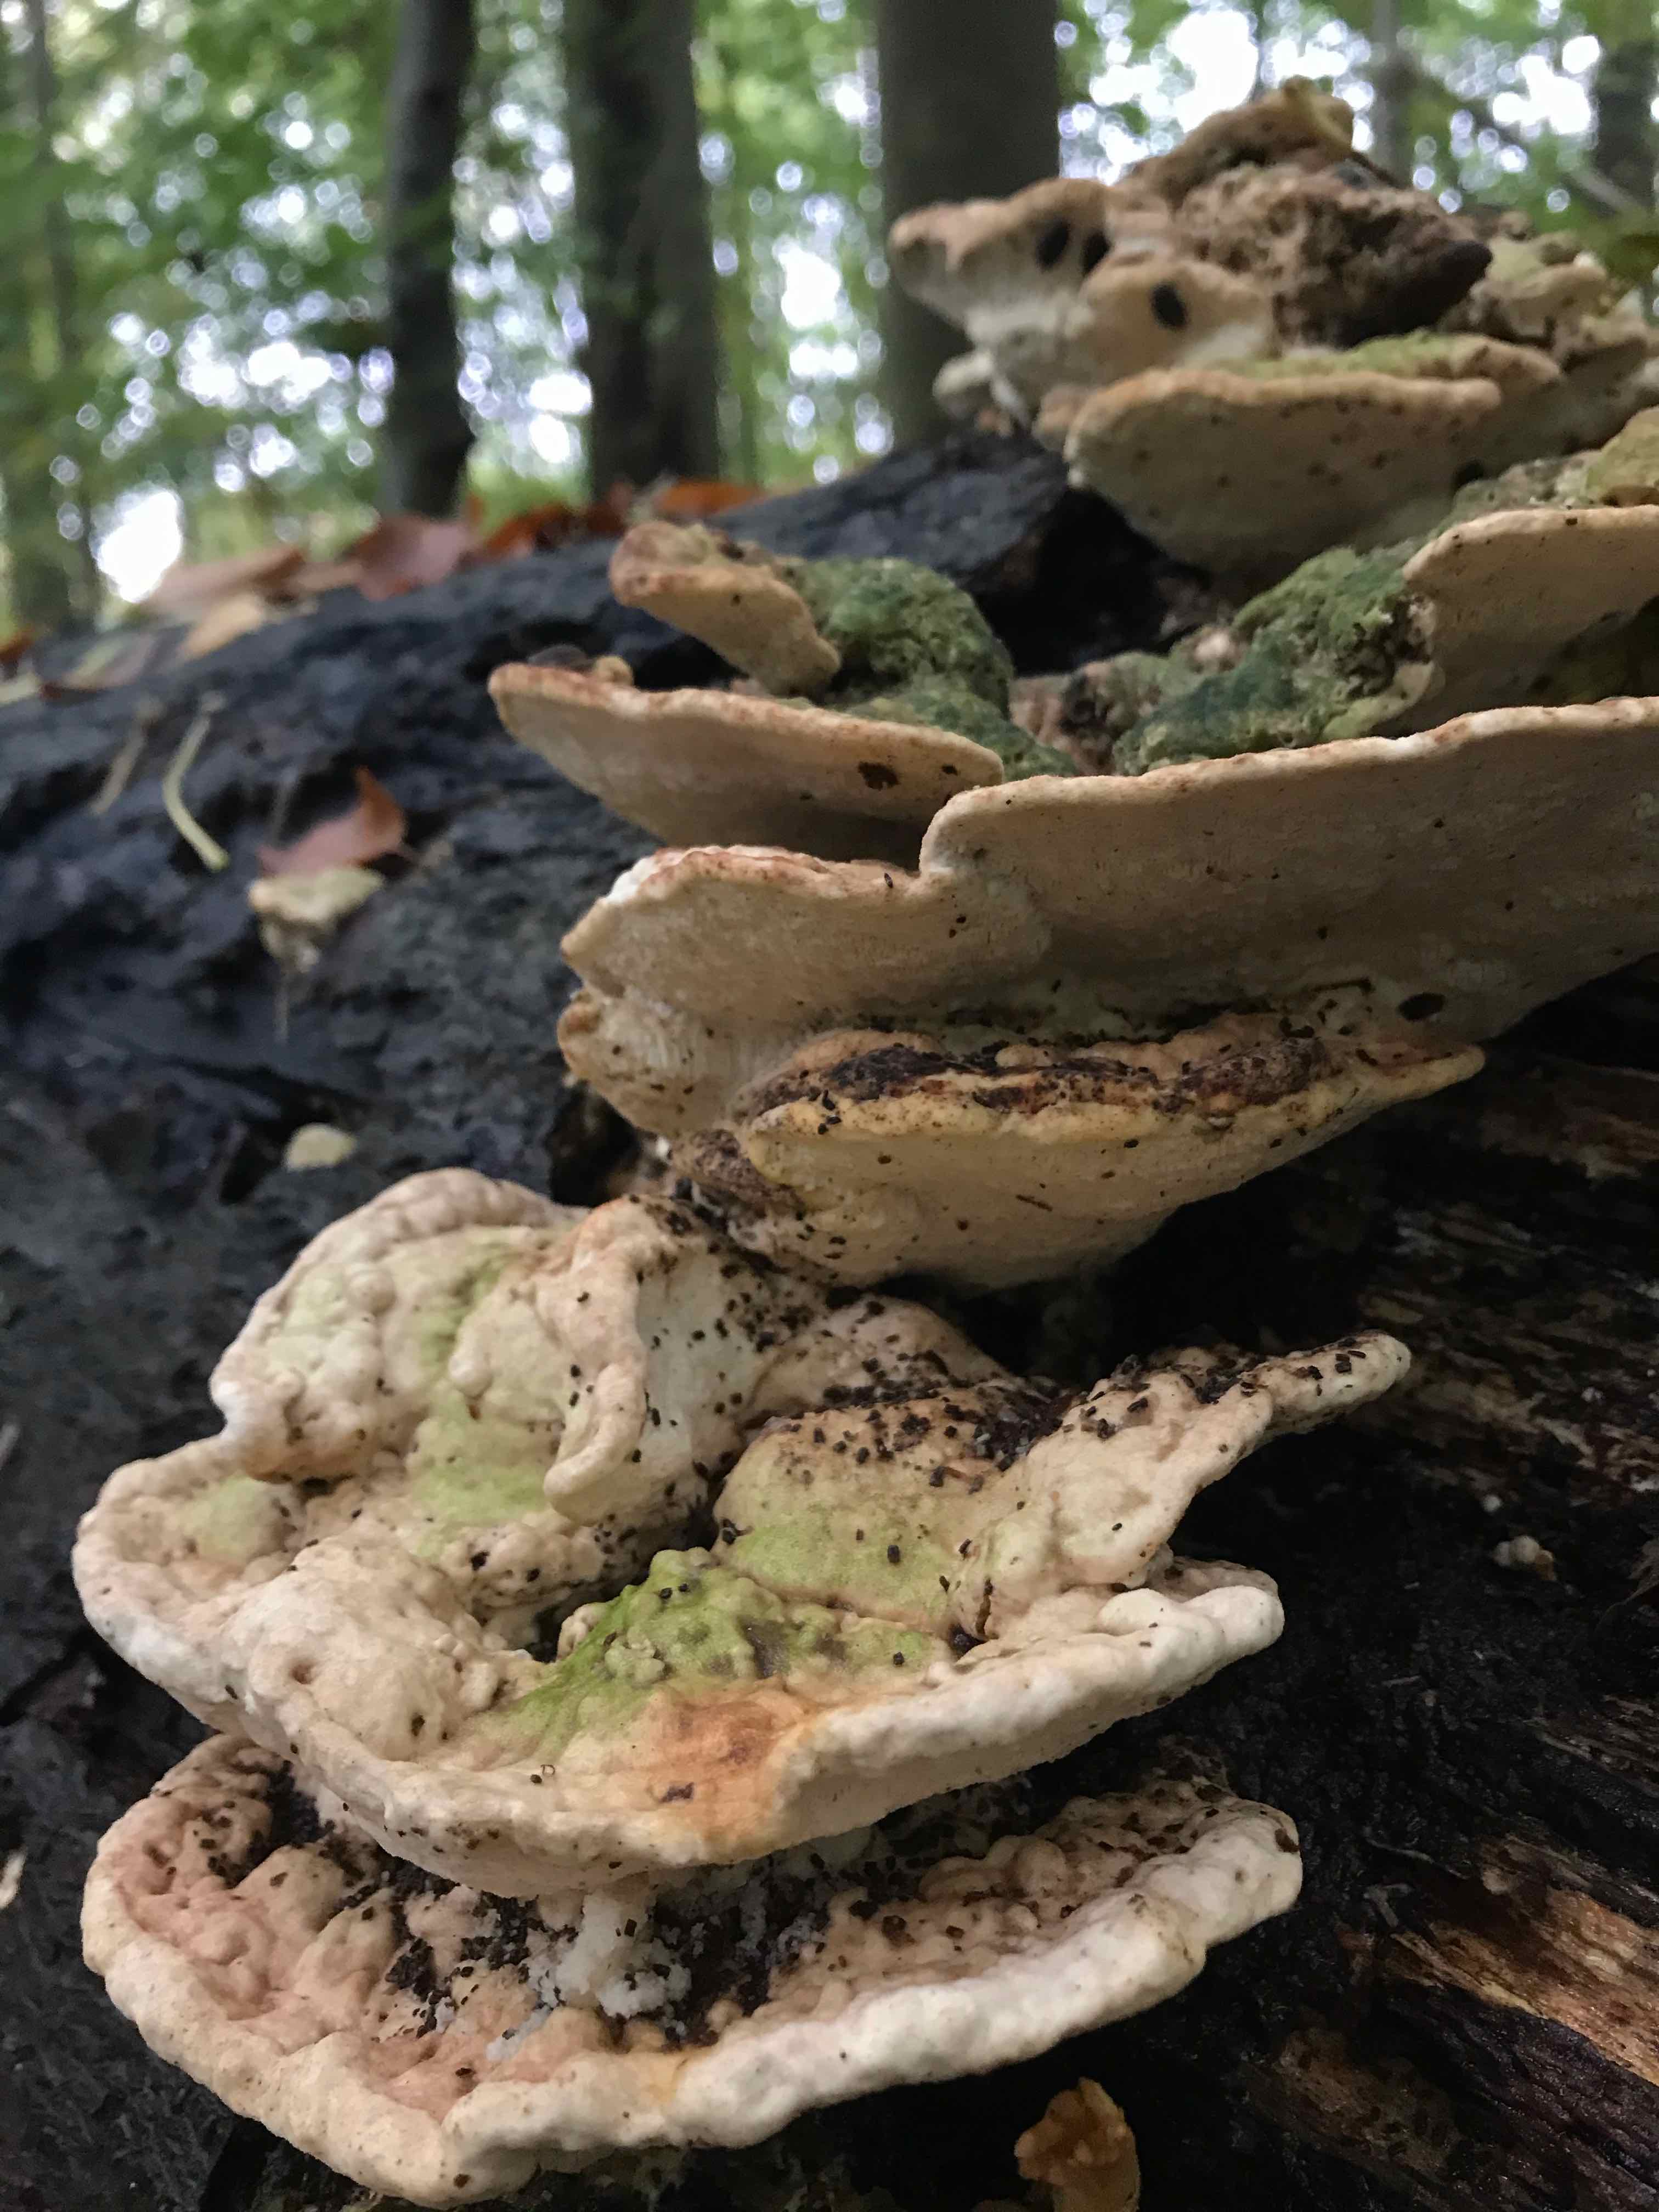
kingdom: Fungi
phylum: Basidiomycota
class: Agaricomycetes
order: Polyporales
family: Polyporaceae
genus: Trametes
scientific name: Trametes gibbosa
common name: puklet læderporesvamp
